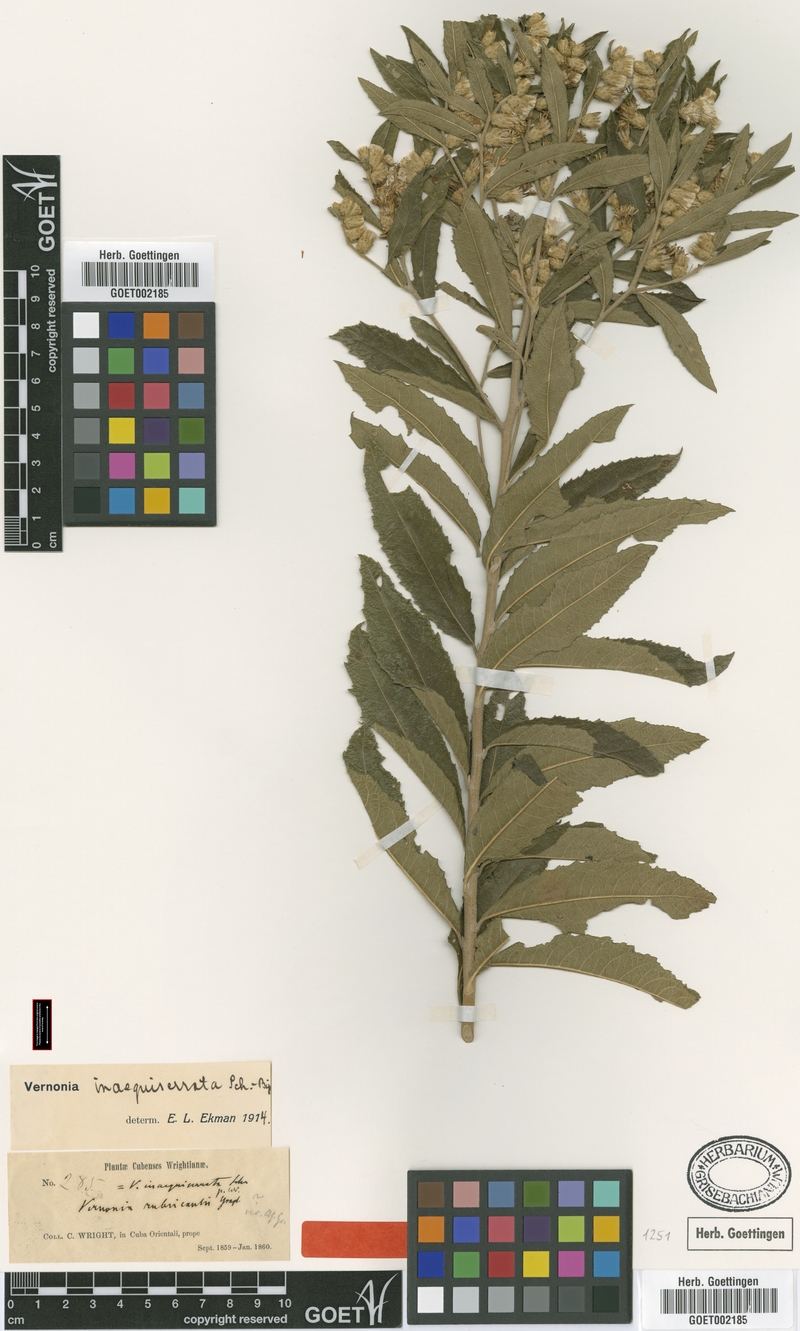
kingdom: Plantae
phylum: Tracheophyta
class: Magnoliopsida
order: Asterales
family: Asteraceae
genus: Lepidaploa
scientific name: Lepidaploa sagrana
